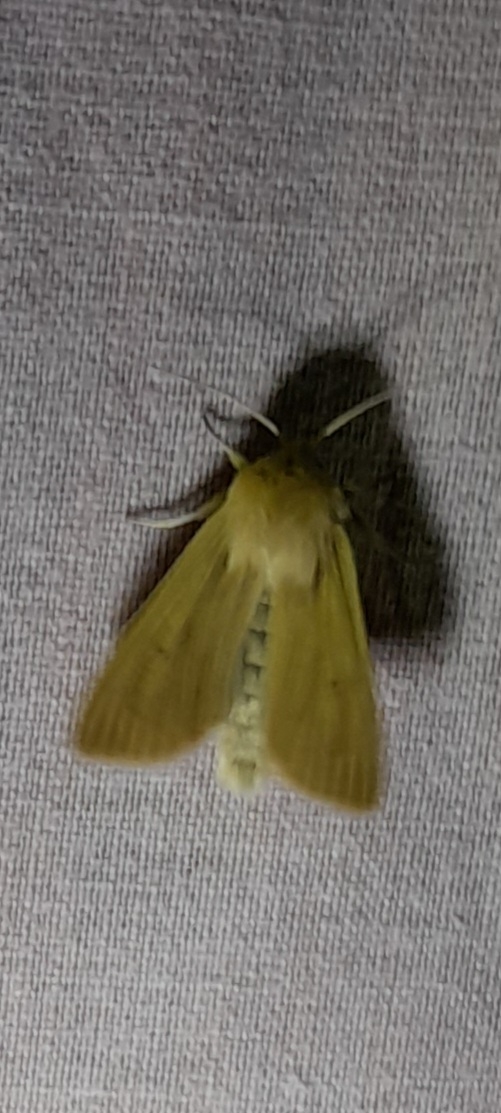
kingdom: Animalia
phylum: Arthropoda
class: Insecta
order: Lepidoptera
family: Noctuidae
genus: Mythimna
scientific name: Mythimna pallens
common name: Halmugle
